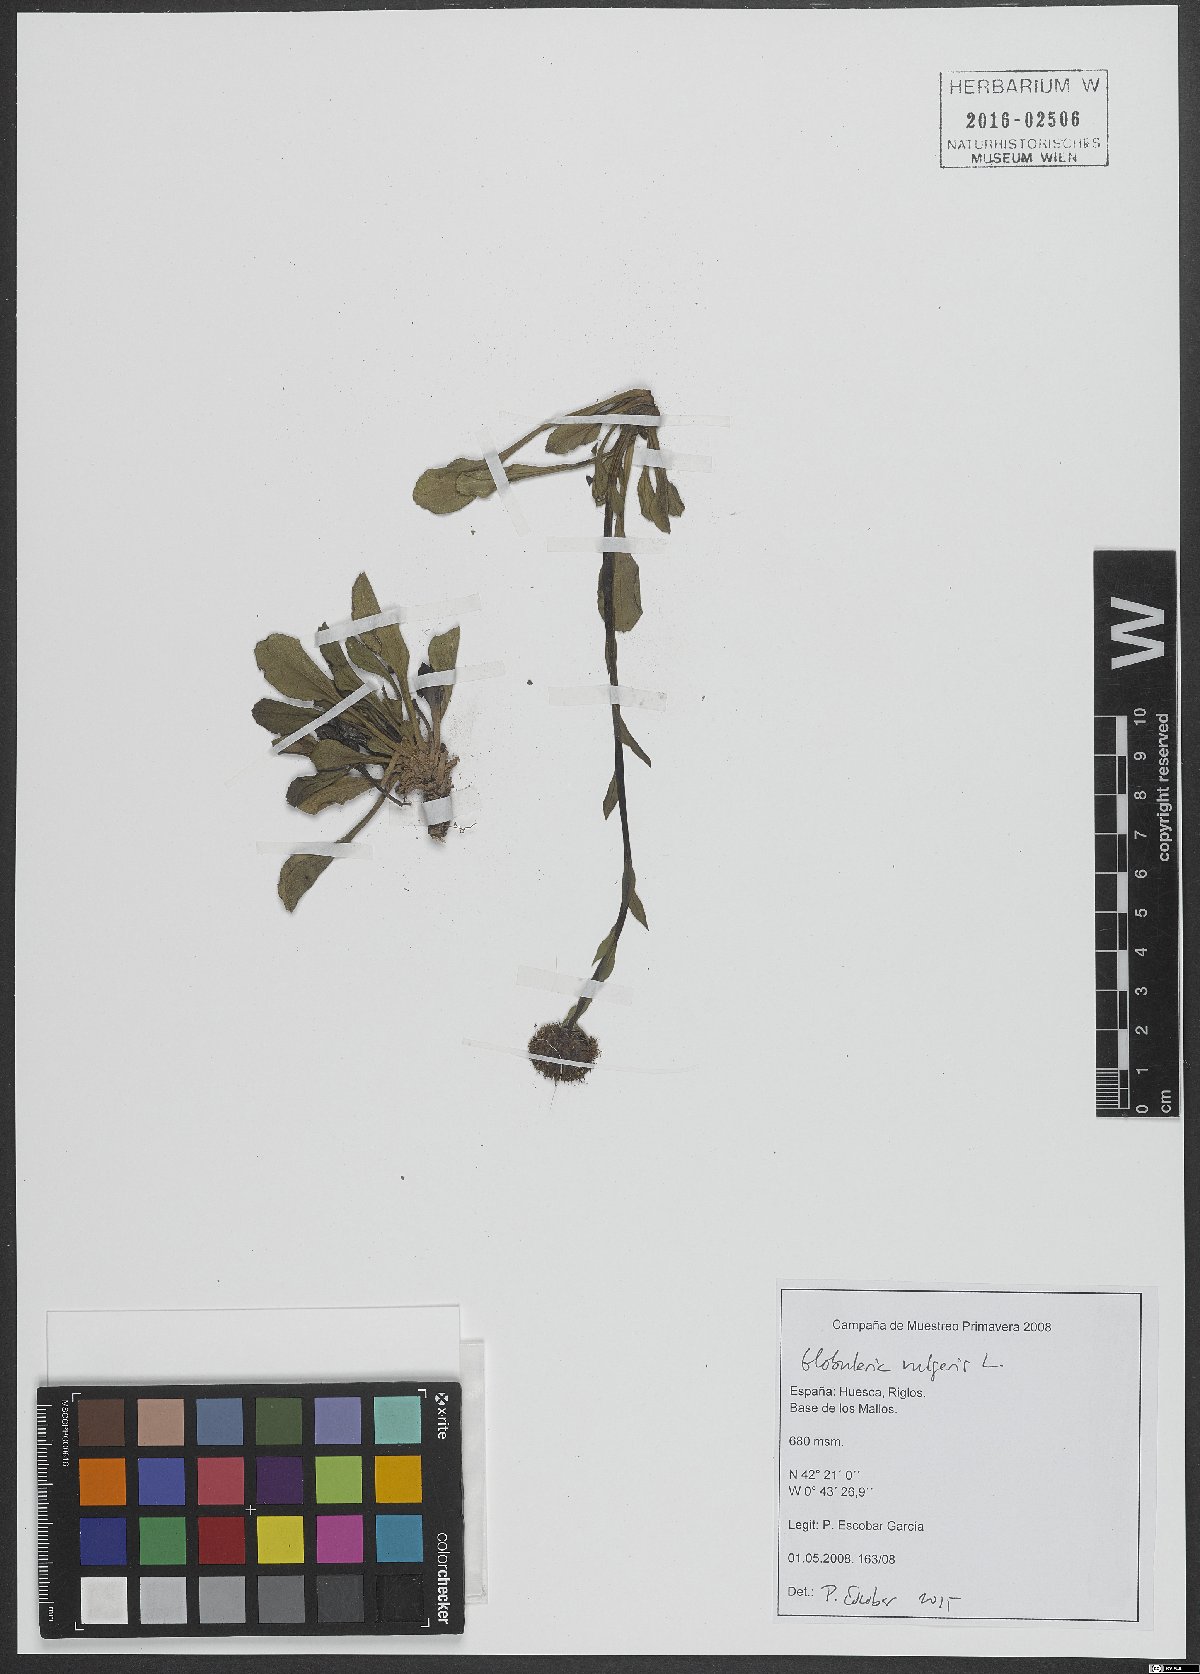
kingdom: Plantae
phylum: Tracheophyta
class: Magnoliopsida
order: Lamiales
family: Plantaginaceae
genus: Globularia
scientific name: Globularia vulgaris
